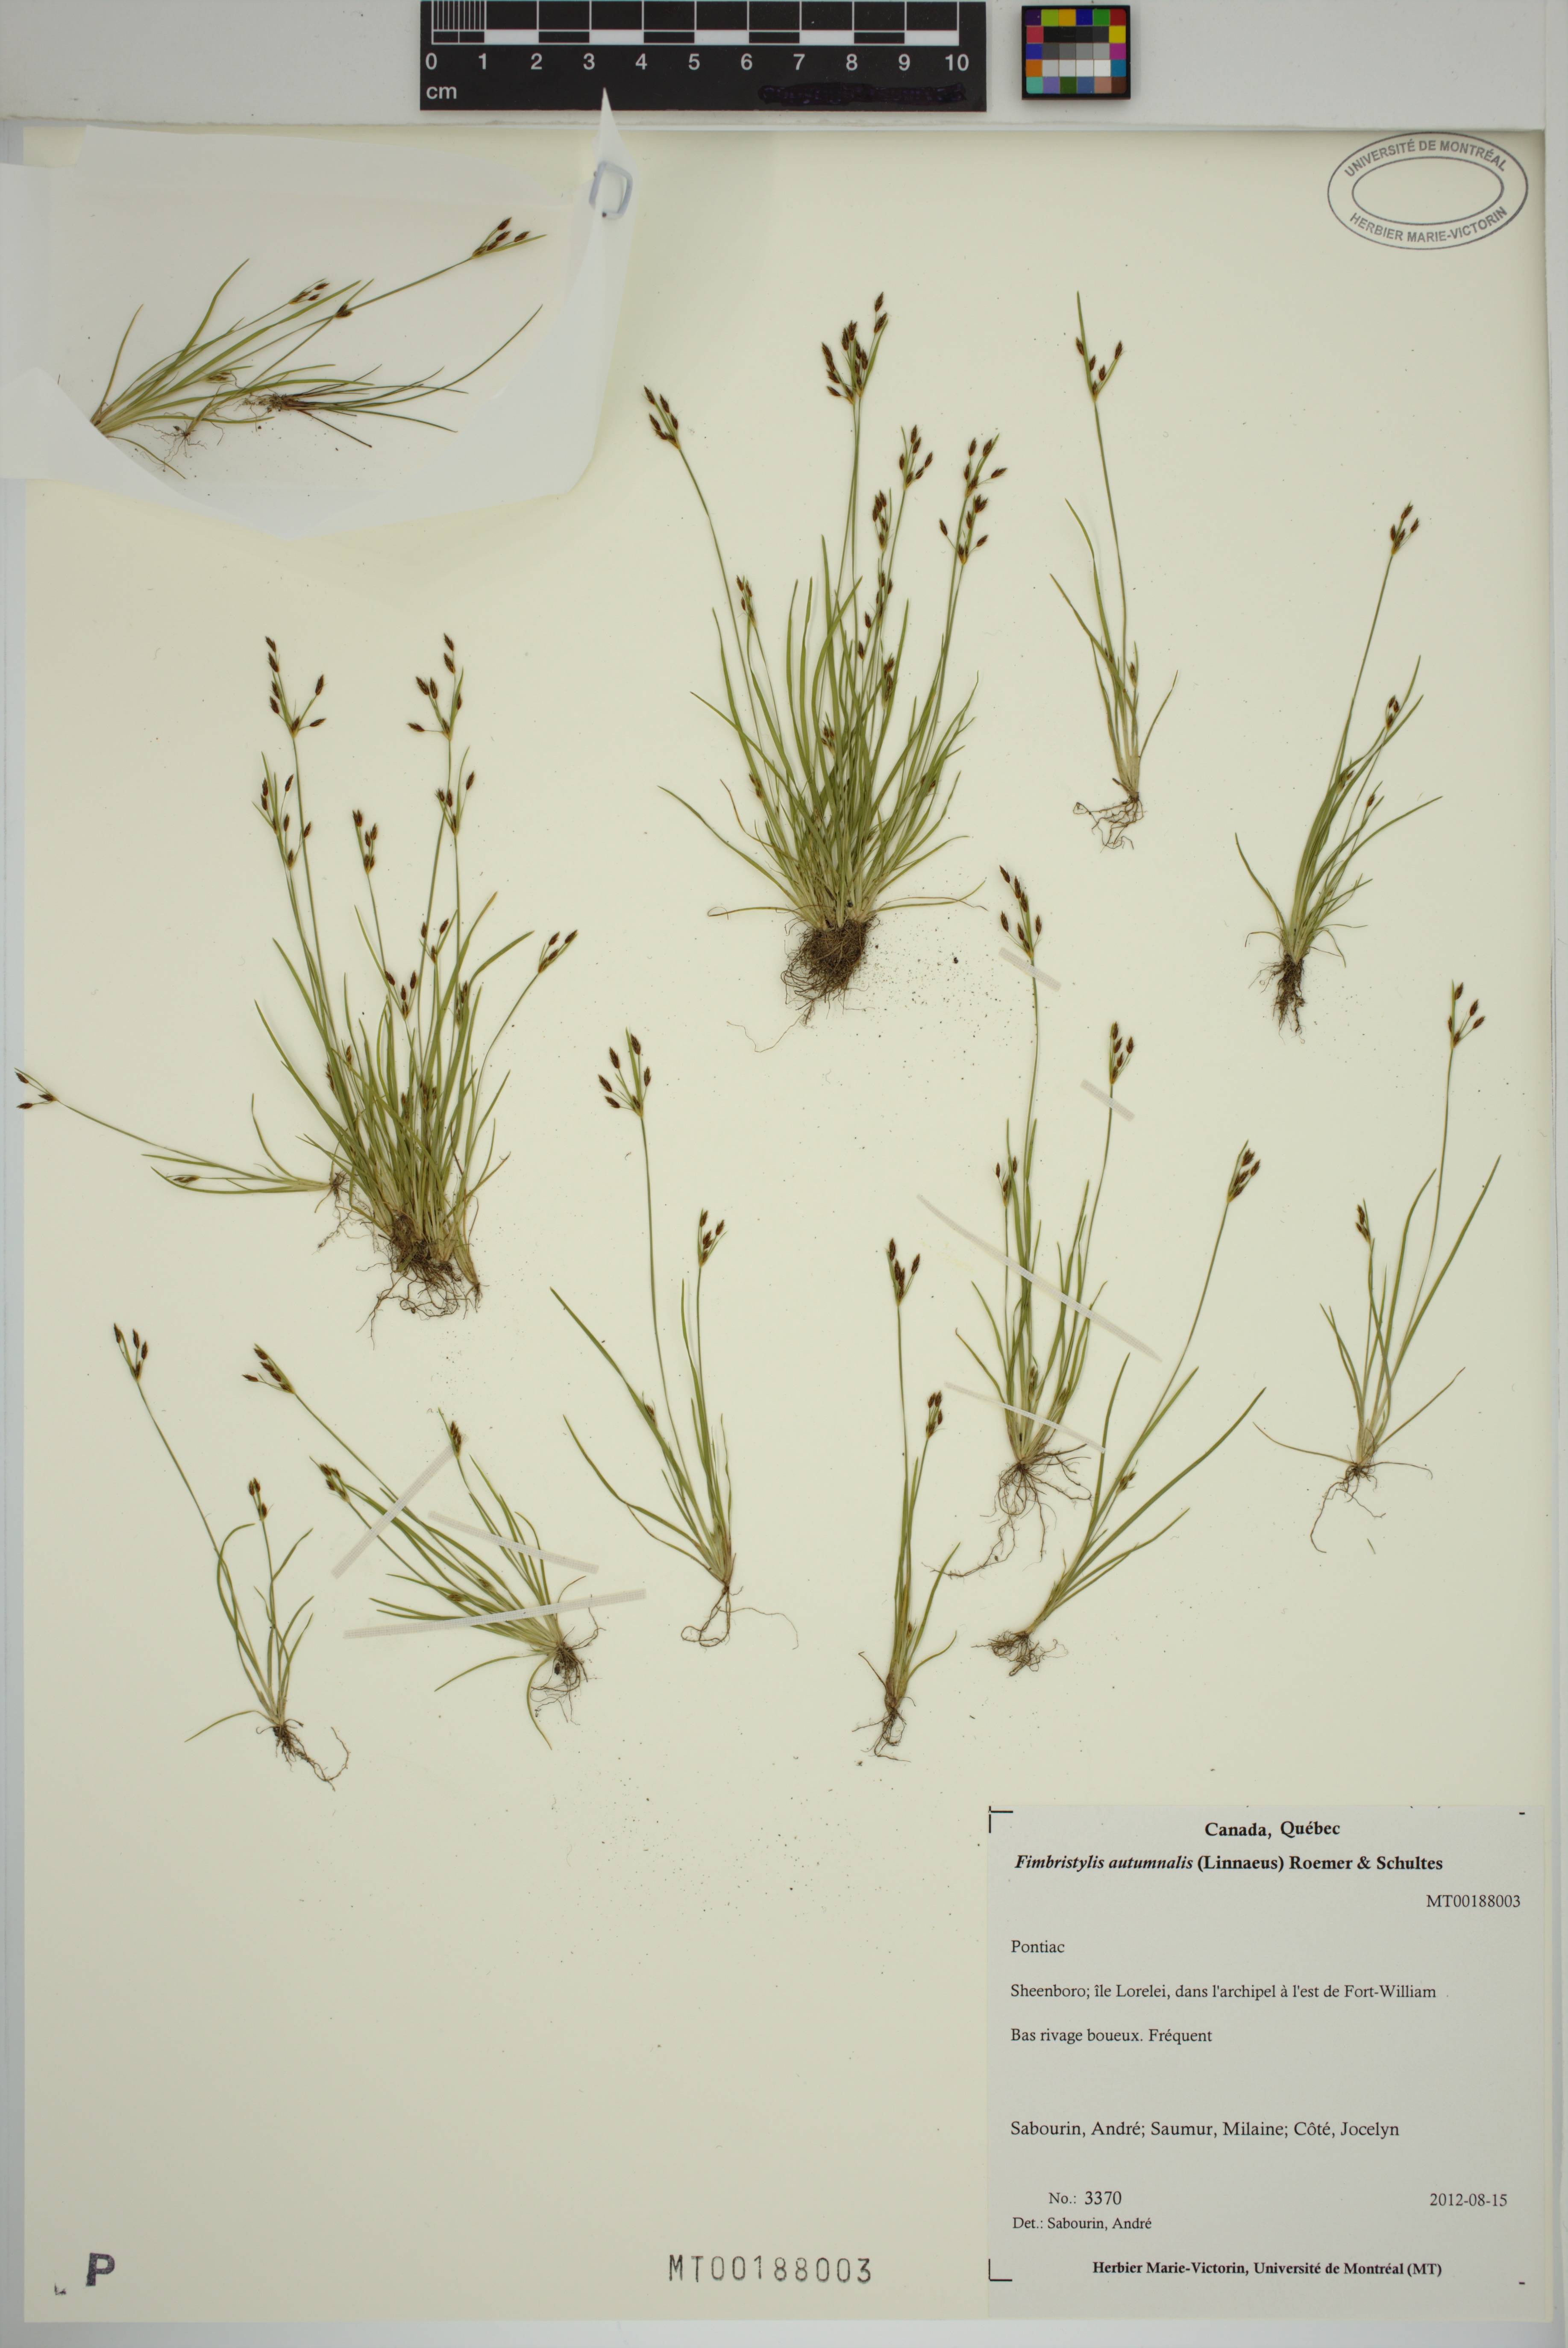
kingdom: Plantae
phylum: Tracheophyta
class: Liliopsida
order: Poales
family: Cyperaceae
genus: Fimbristylis
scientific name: Fimbristylis autumnalis
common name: Slender fimbristylis
